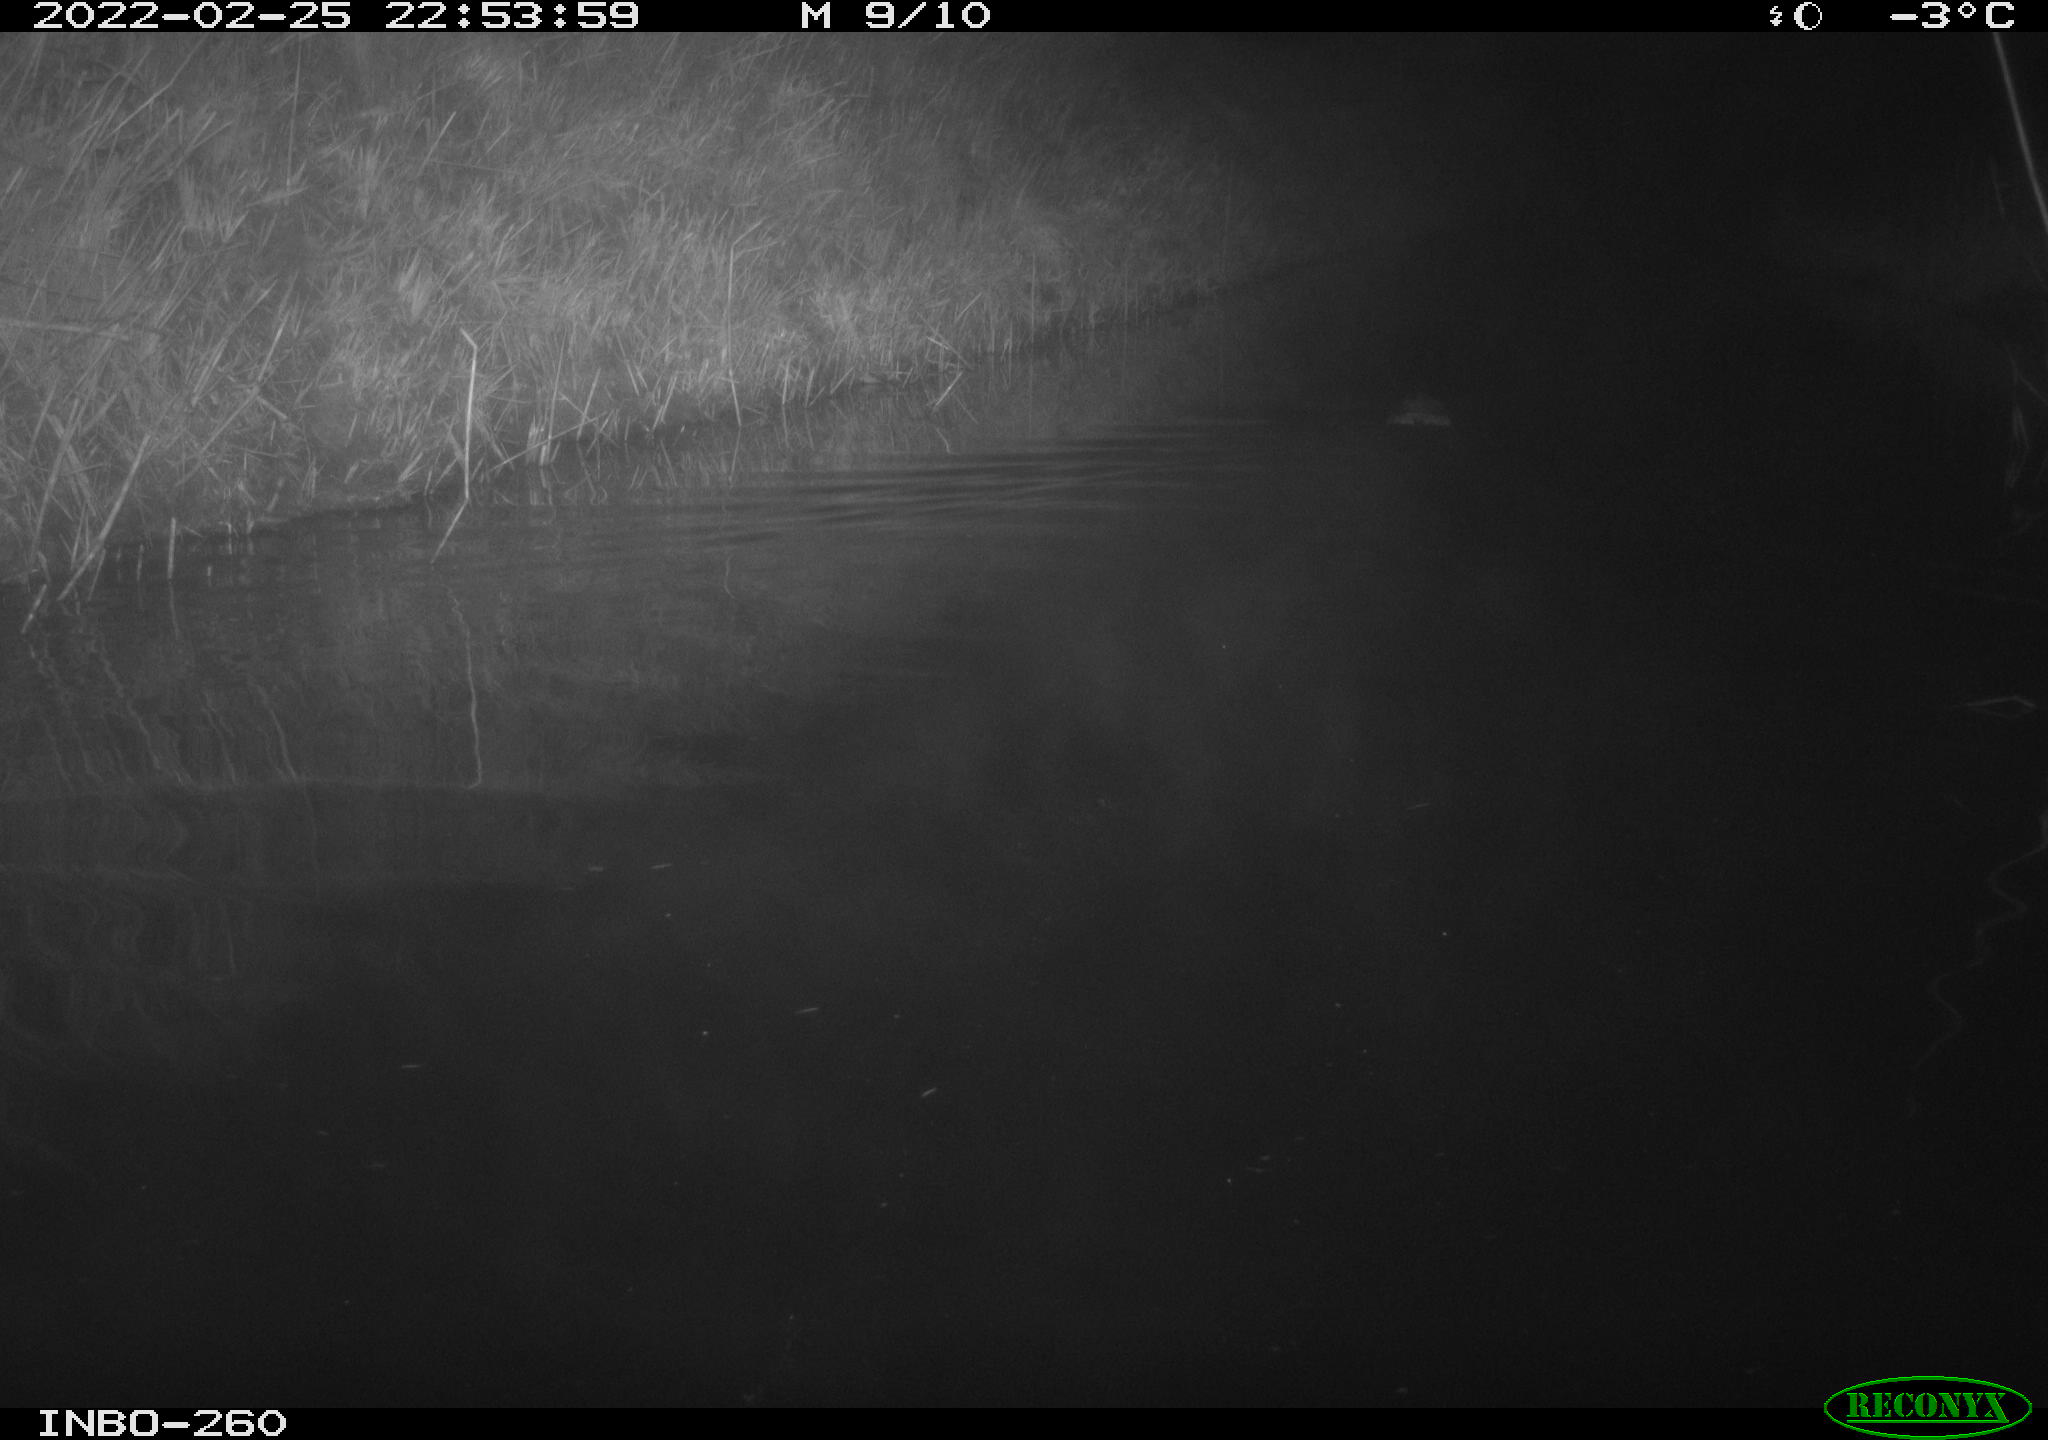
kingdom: Animalia
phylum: Chordata
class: Mammalia
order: Rodentia
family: Cricetidae
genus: Ondatra
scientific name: Ondatra zibethicus
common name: Muskrat
